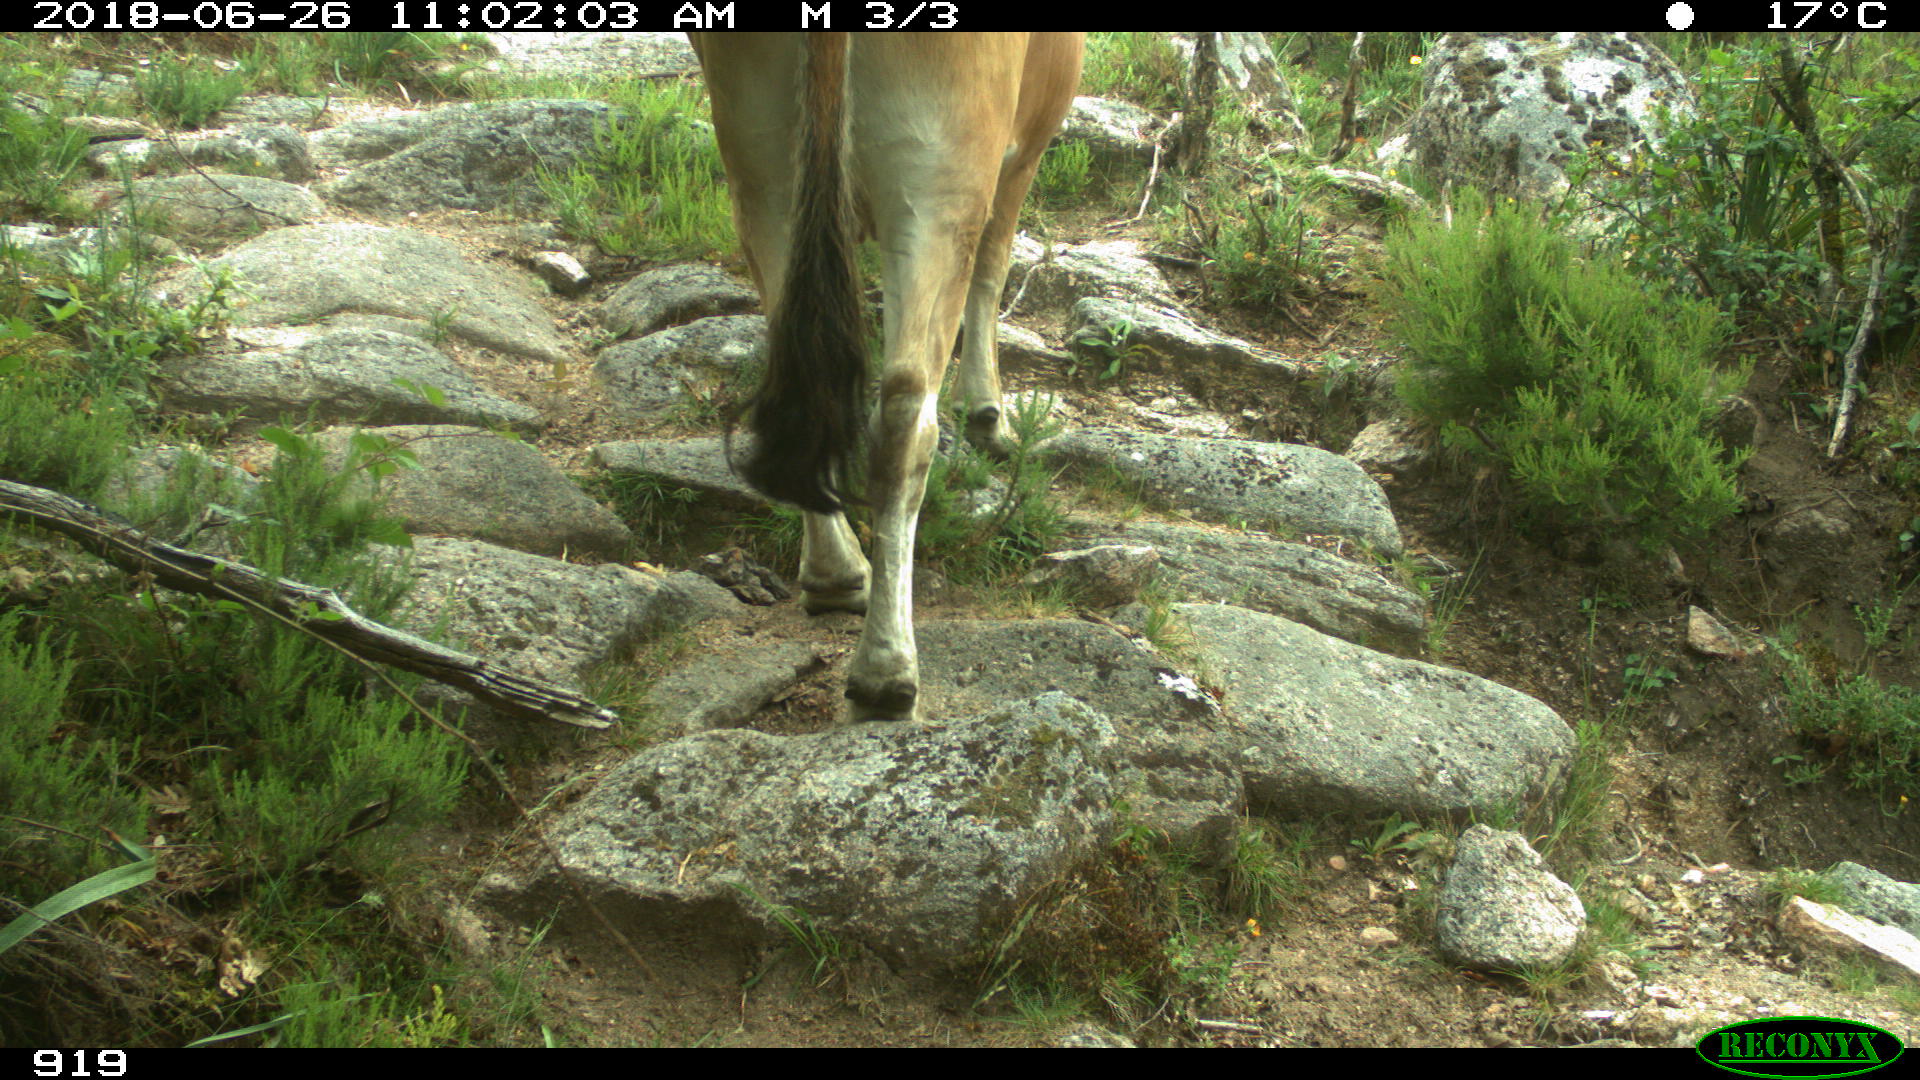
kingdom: Animalia
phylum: Chordata
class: Mammalia
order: Artiodactyla
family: Bovidae
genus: Bos
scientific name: Bos taurus
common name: Domesticated cattle
